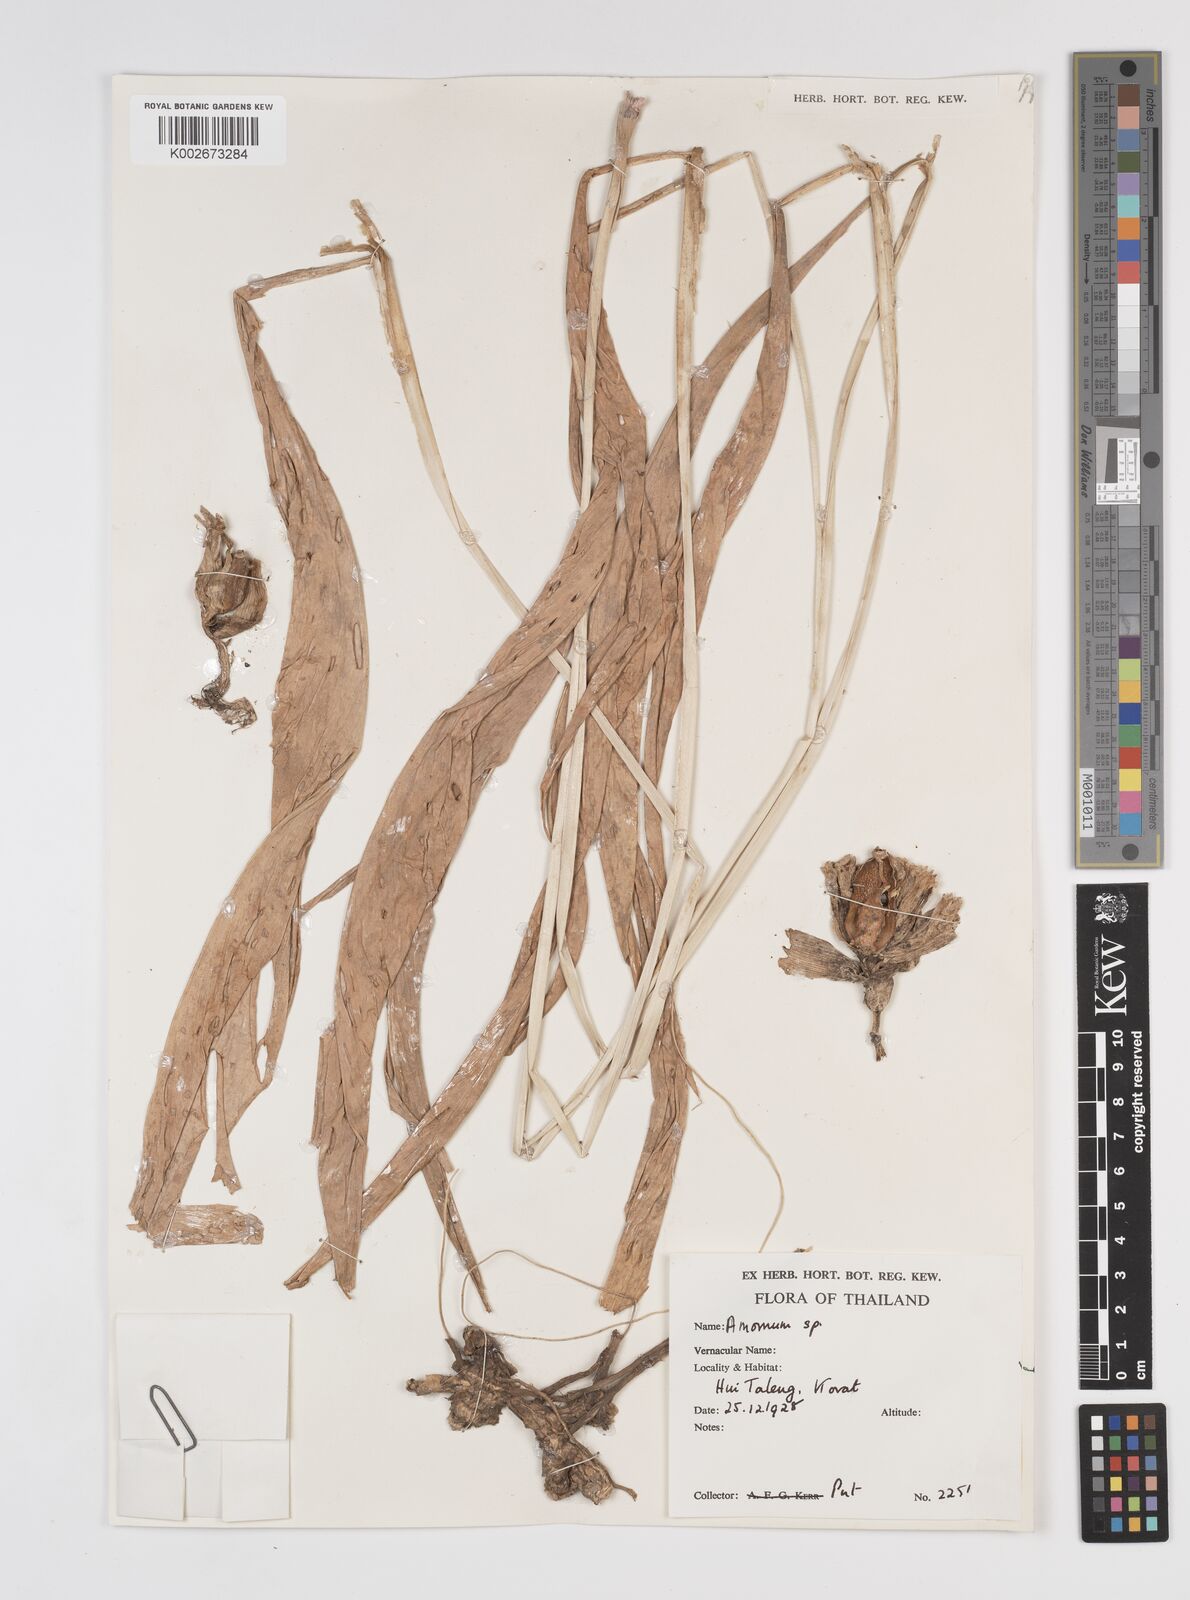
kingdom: Plantae
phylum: Tracheophyta
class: Liliopsida
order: Zingiberales
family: Zingiberaceae
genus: Amomum
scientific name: Amomum
